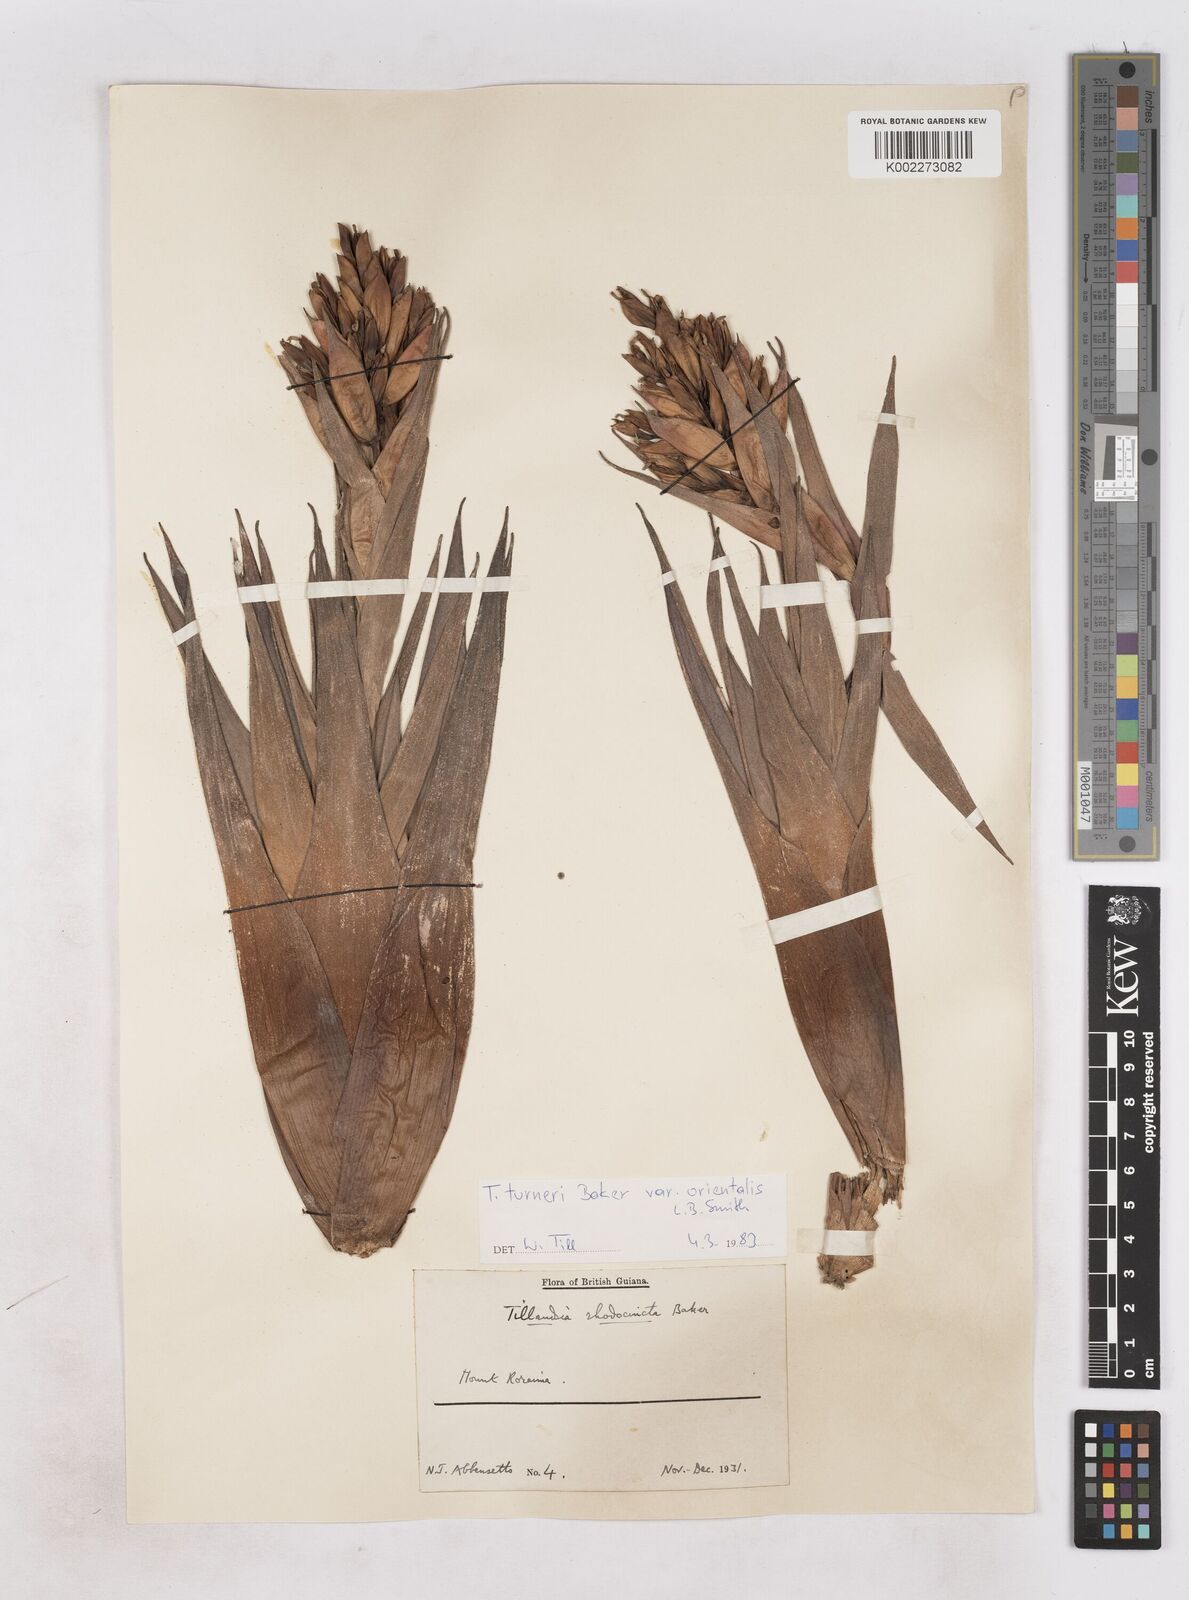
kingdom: Plantae
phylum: Tracheophyta
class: Liliopsida
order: Poales
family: Bromeliaceae
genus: Tillandsia
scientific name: Tillandsia turneri
